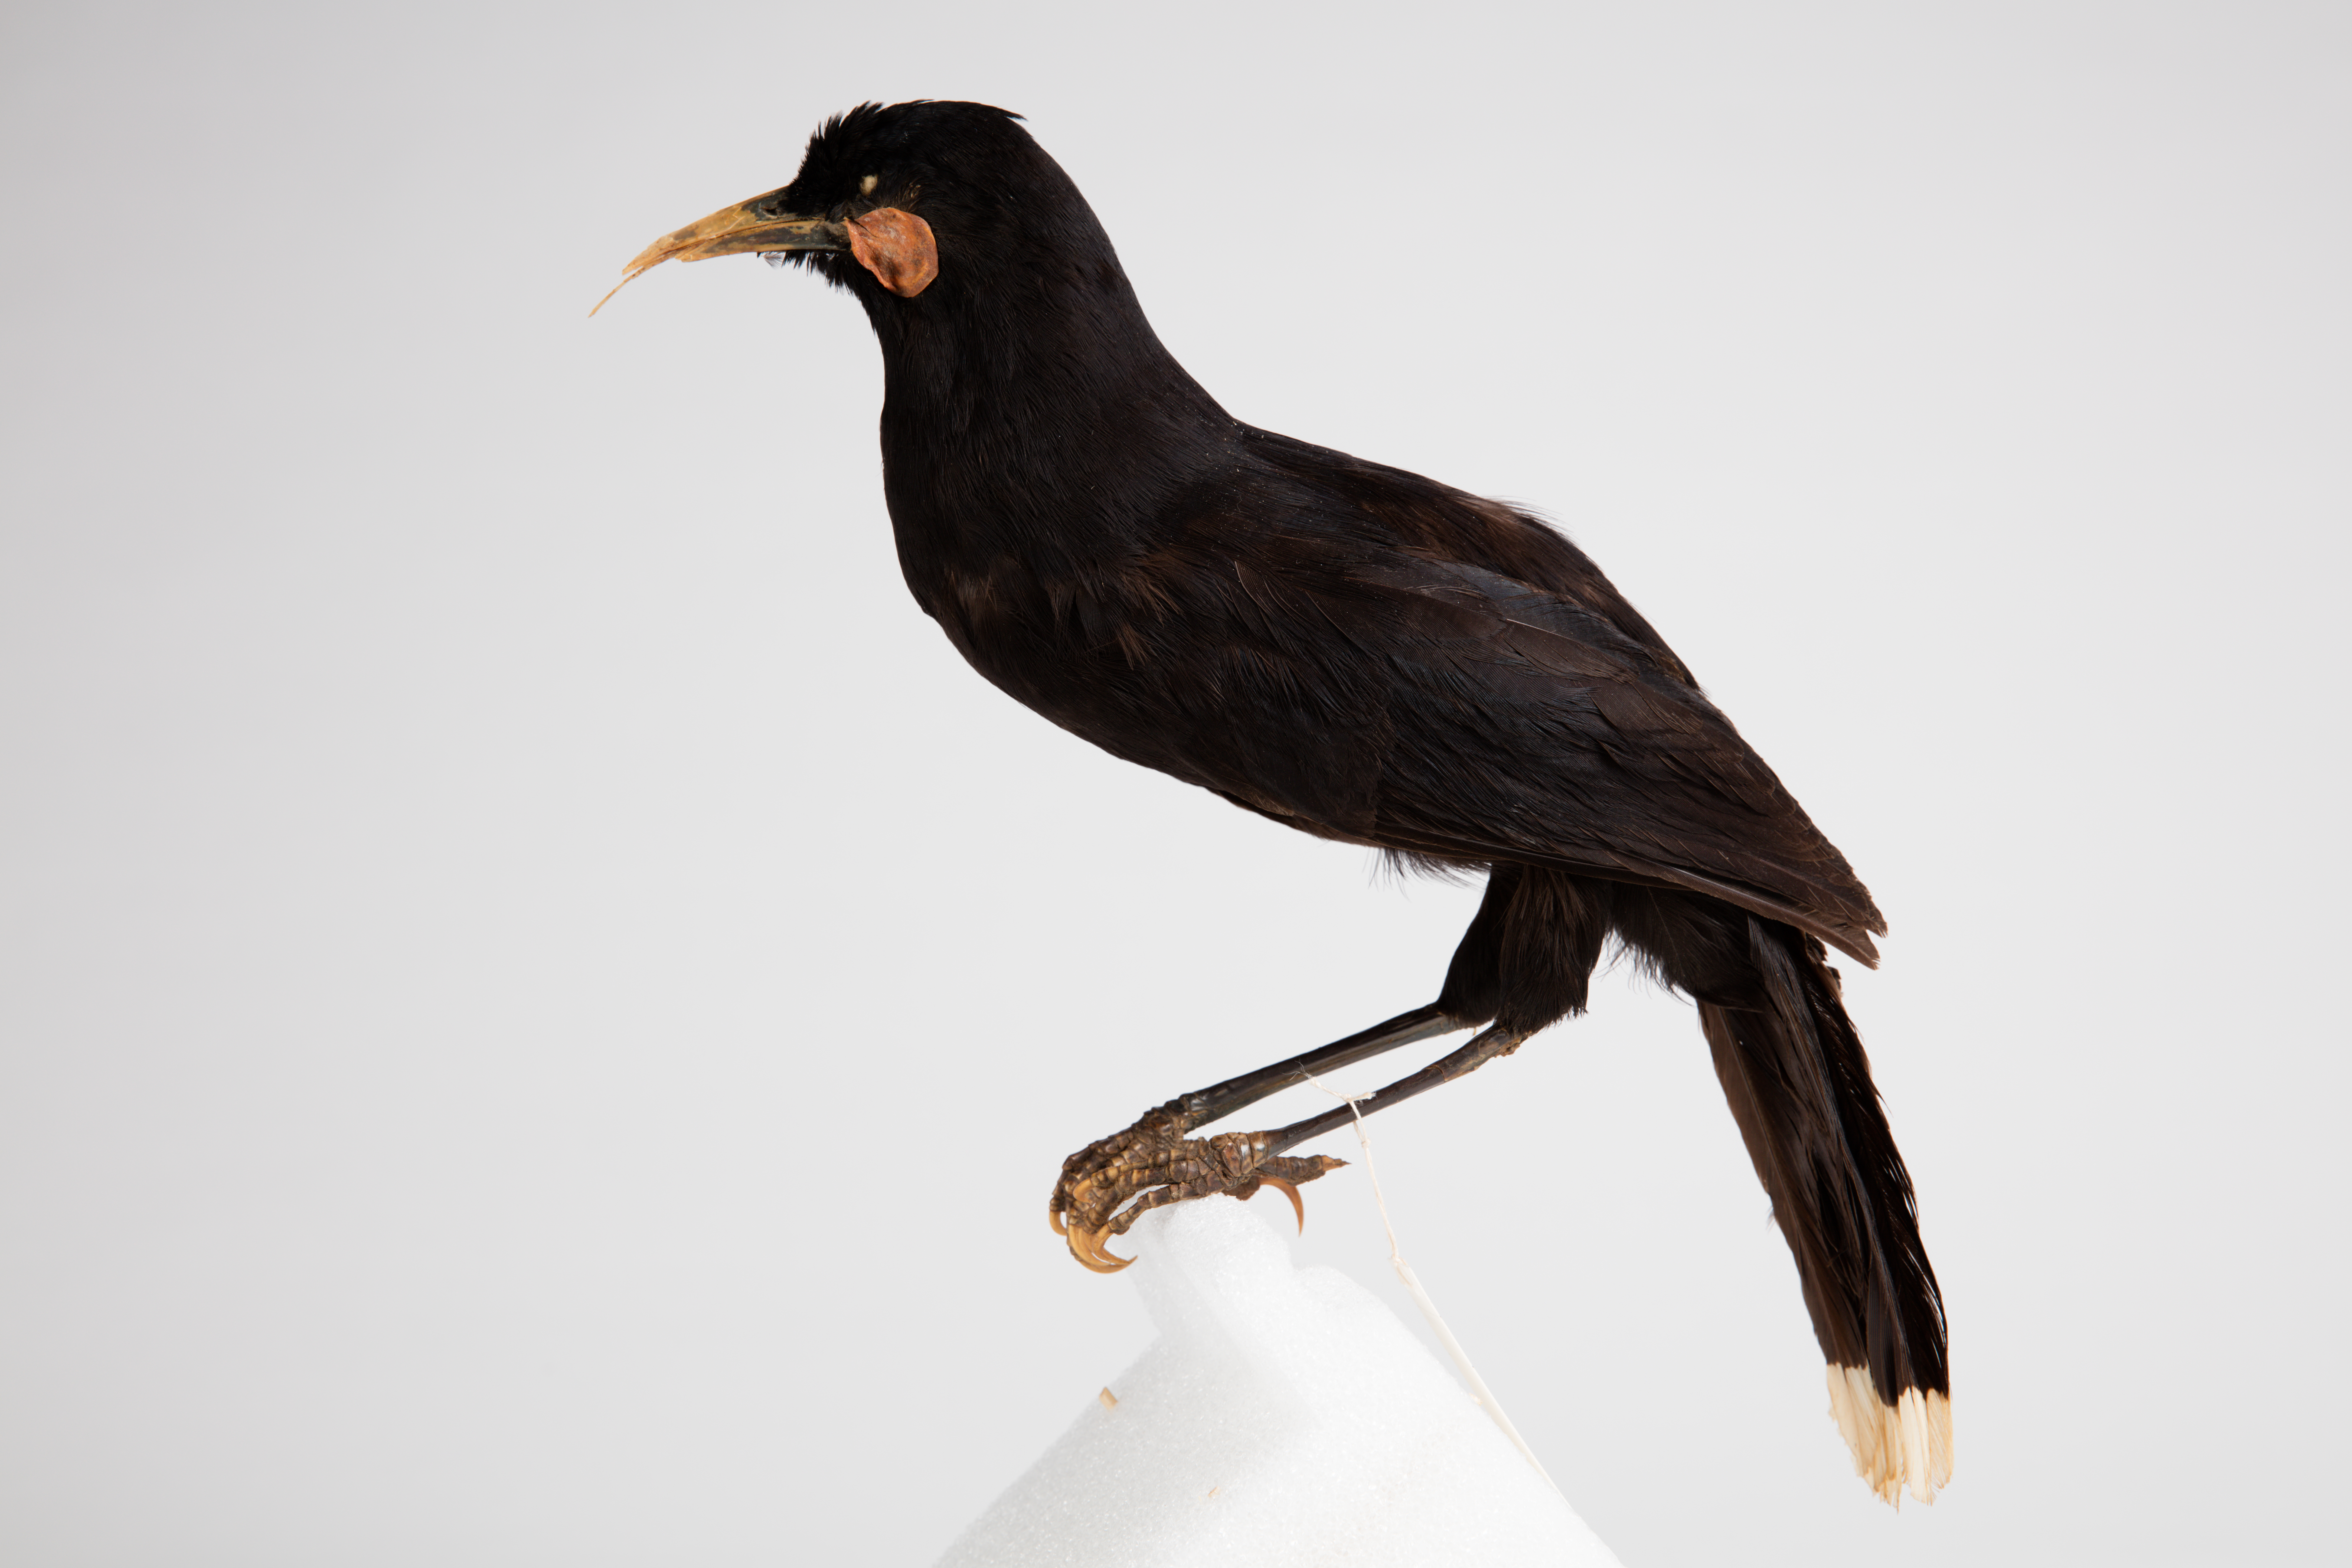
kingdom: Animalia
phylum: Chordata
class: Aves
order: Passeriformes
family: Callaeatidae
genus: Heteralocha
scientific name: Heteralocha acutirostris
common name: Huia
